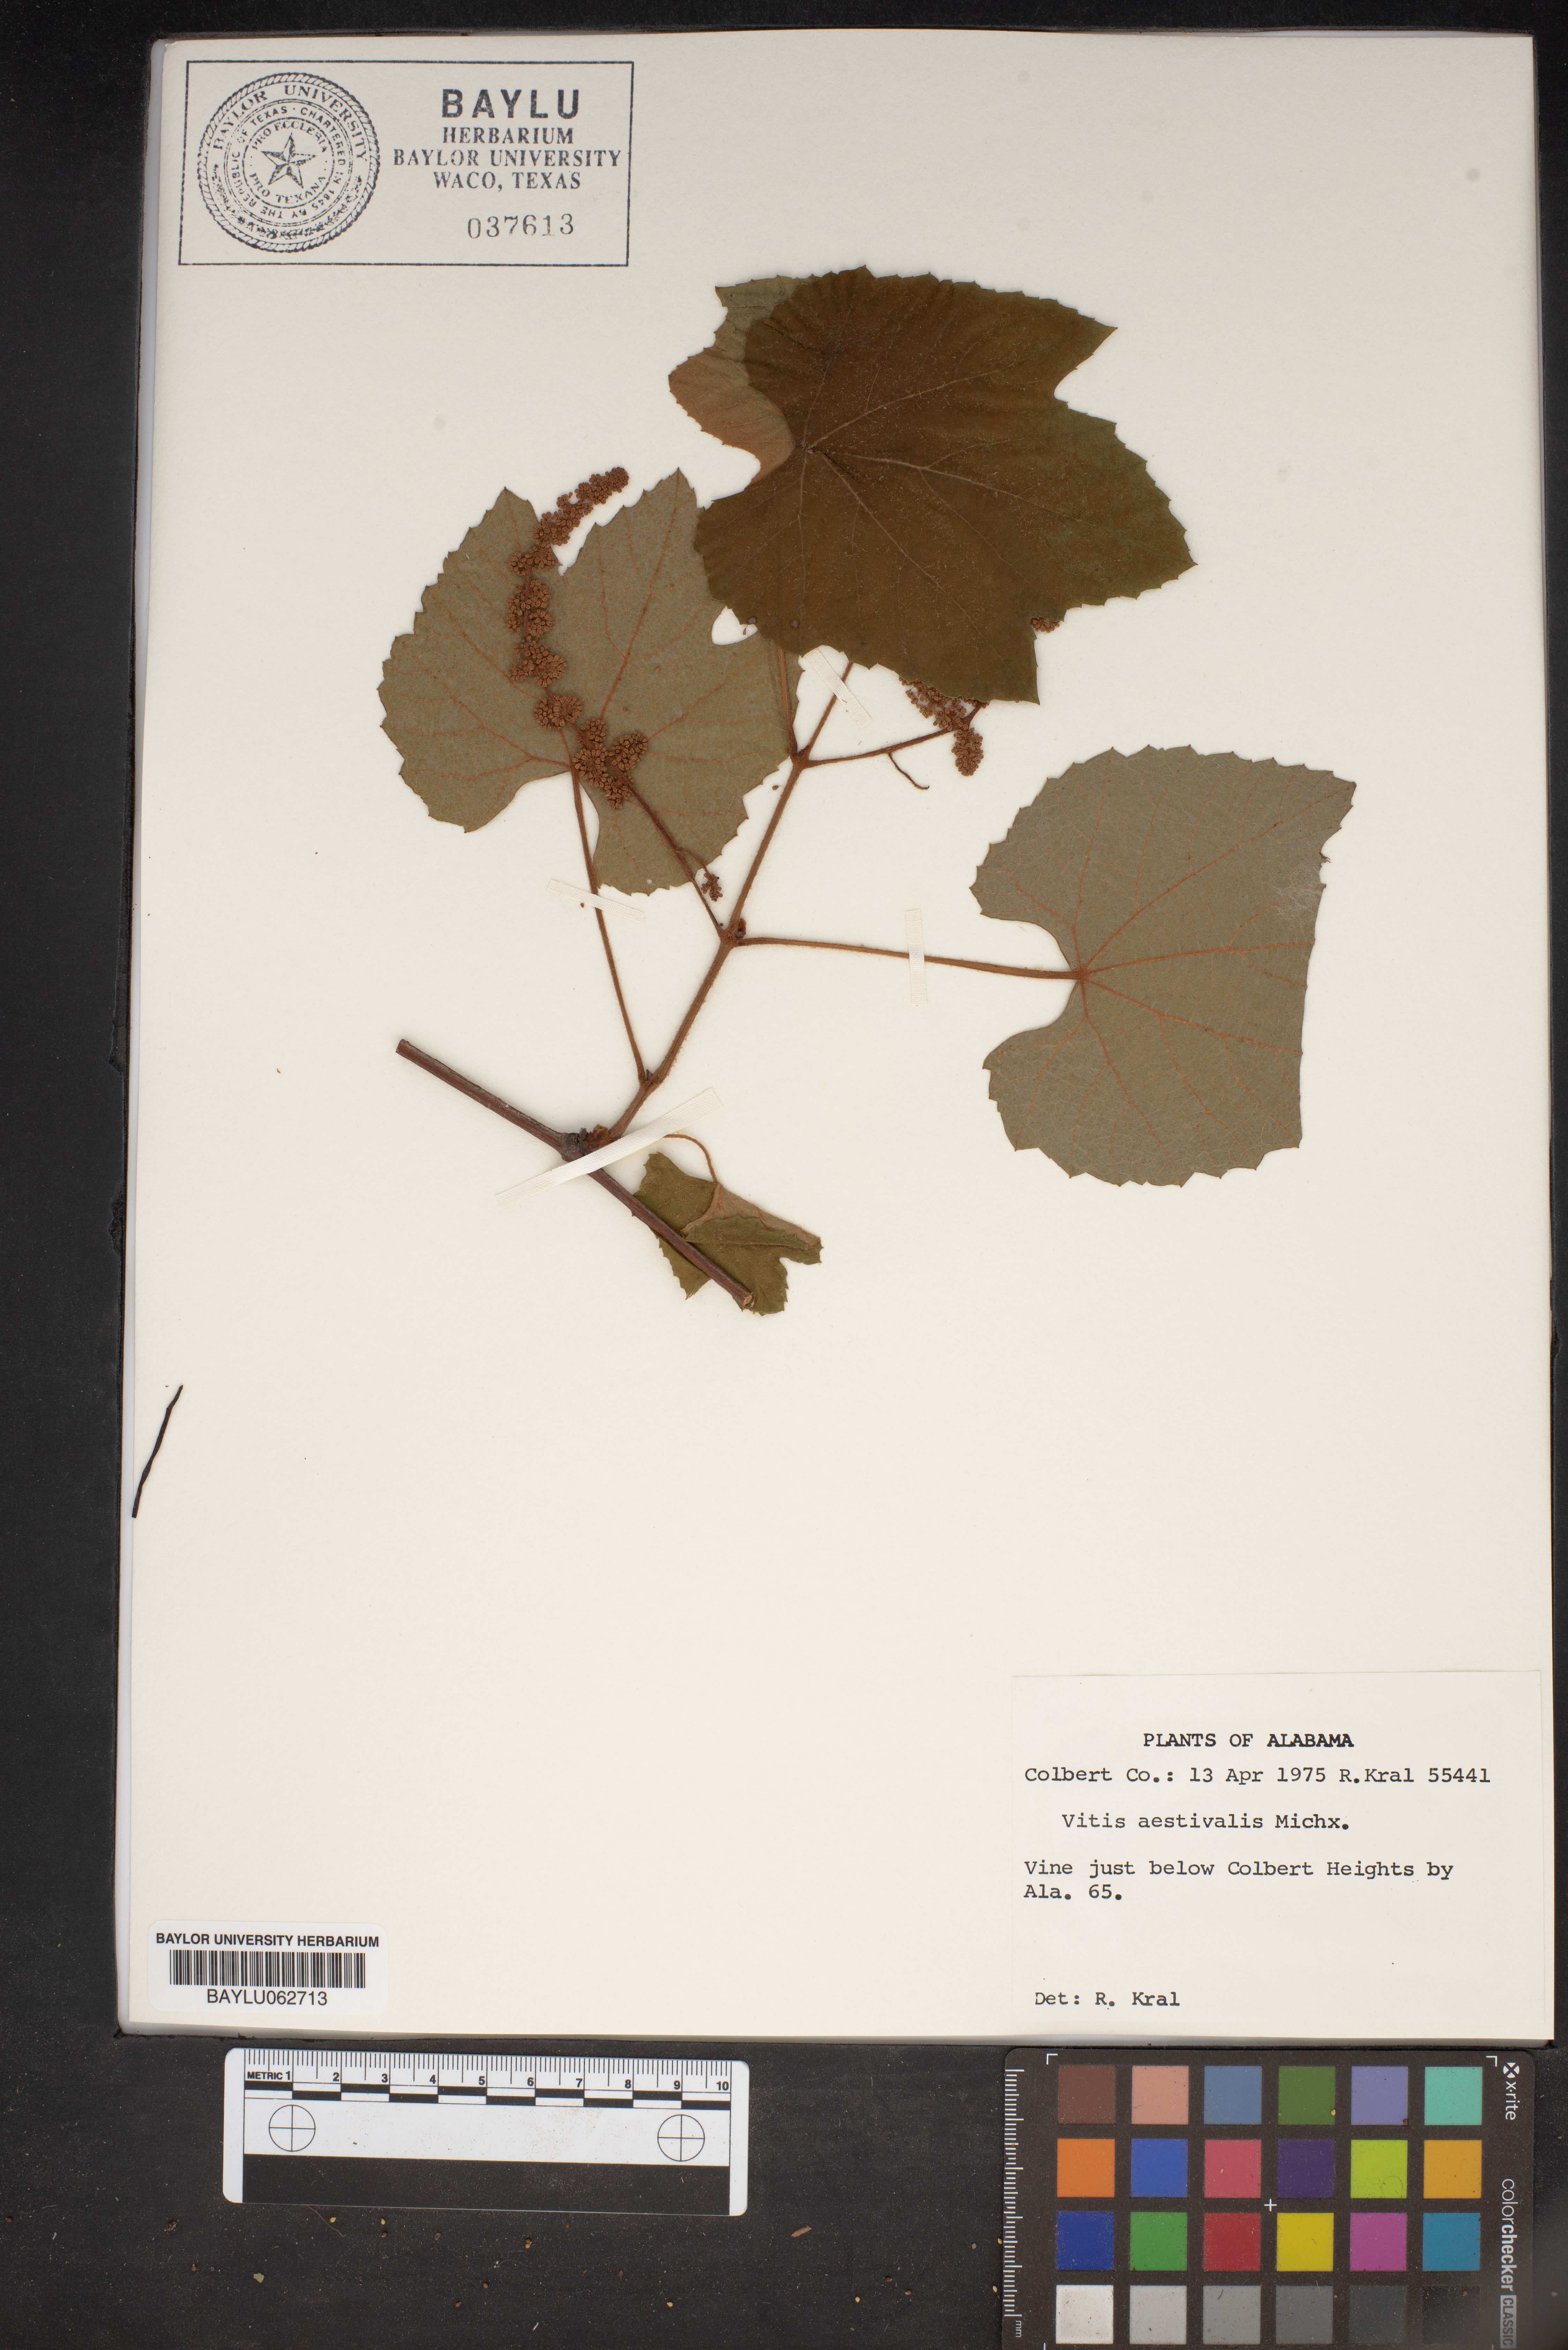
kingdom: Plantae
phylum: Tracheophyta
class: Magnoliopsida
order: Vitales
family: Vitaceae
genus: Vitis
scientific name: Vitis aestivalis
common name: Pigeon grape
